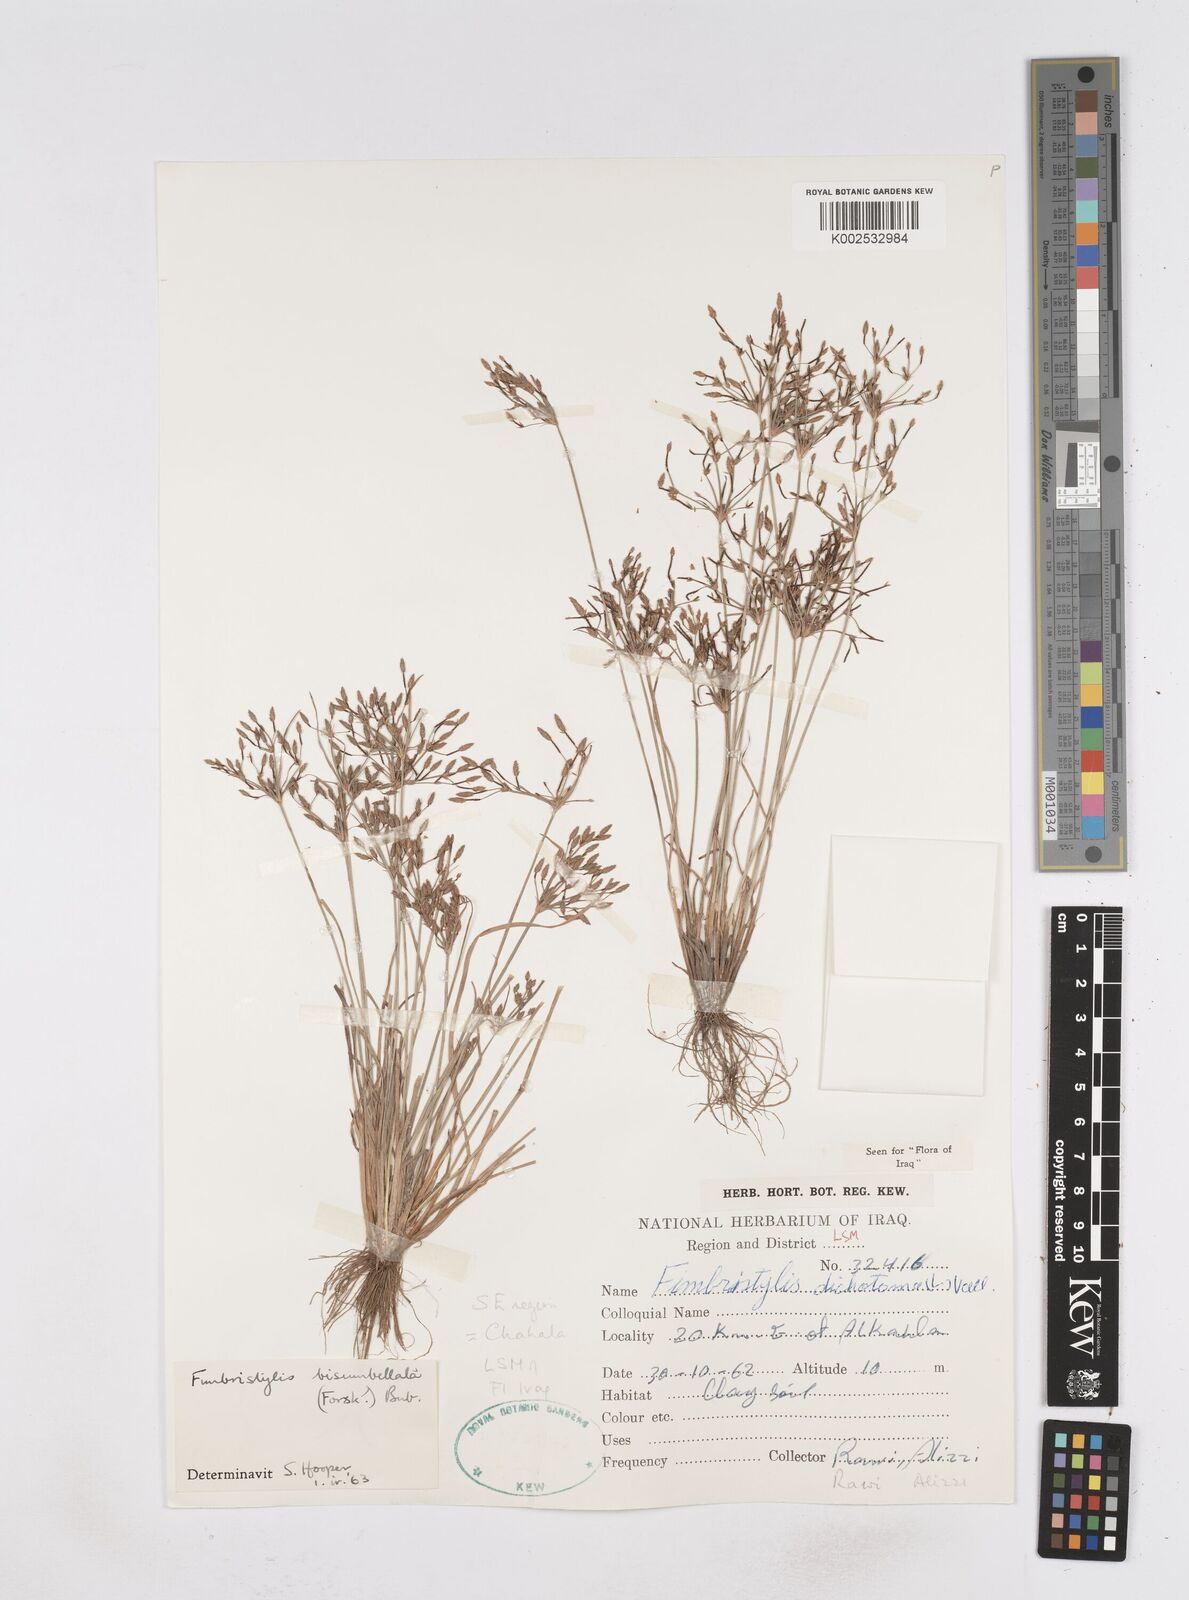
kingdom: Plantae
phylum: Tracheophyta
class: Liliopsida
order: Poales
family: Cyperaceae
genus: Fimbristylis
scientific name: Fimbristylis bisumbellata
